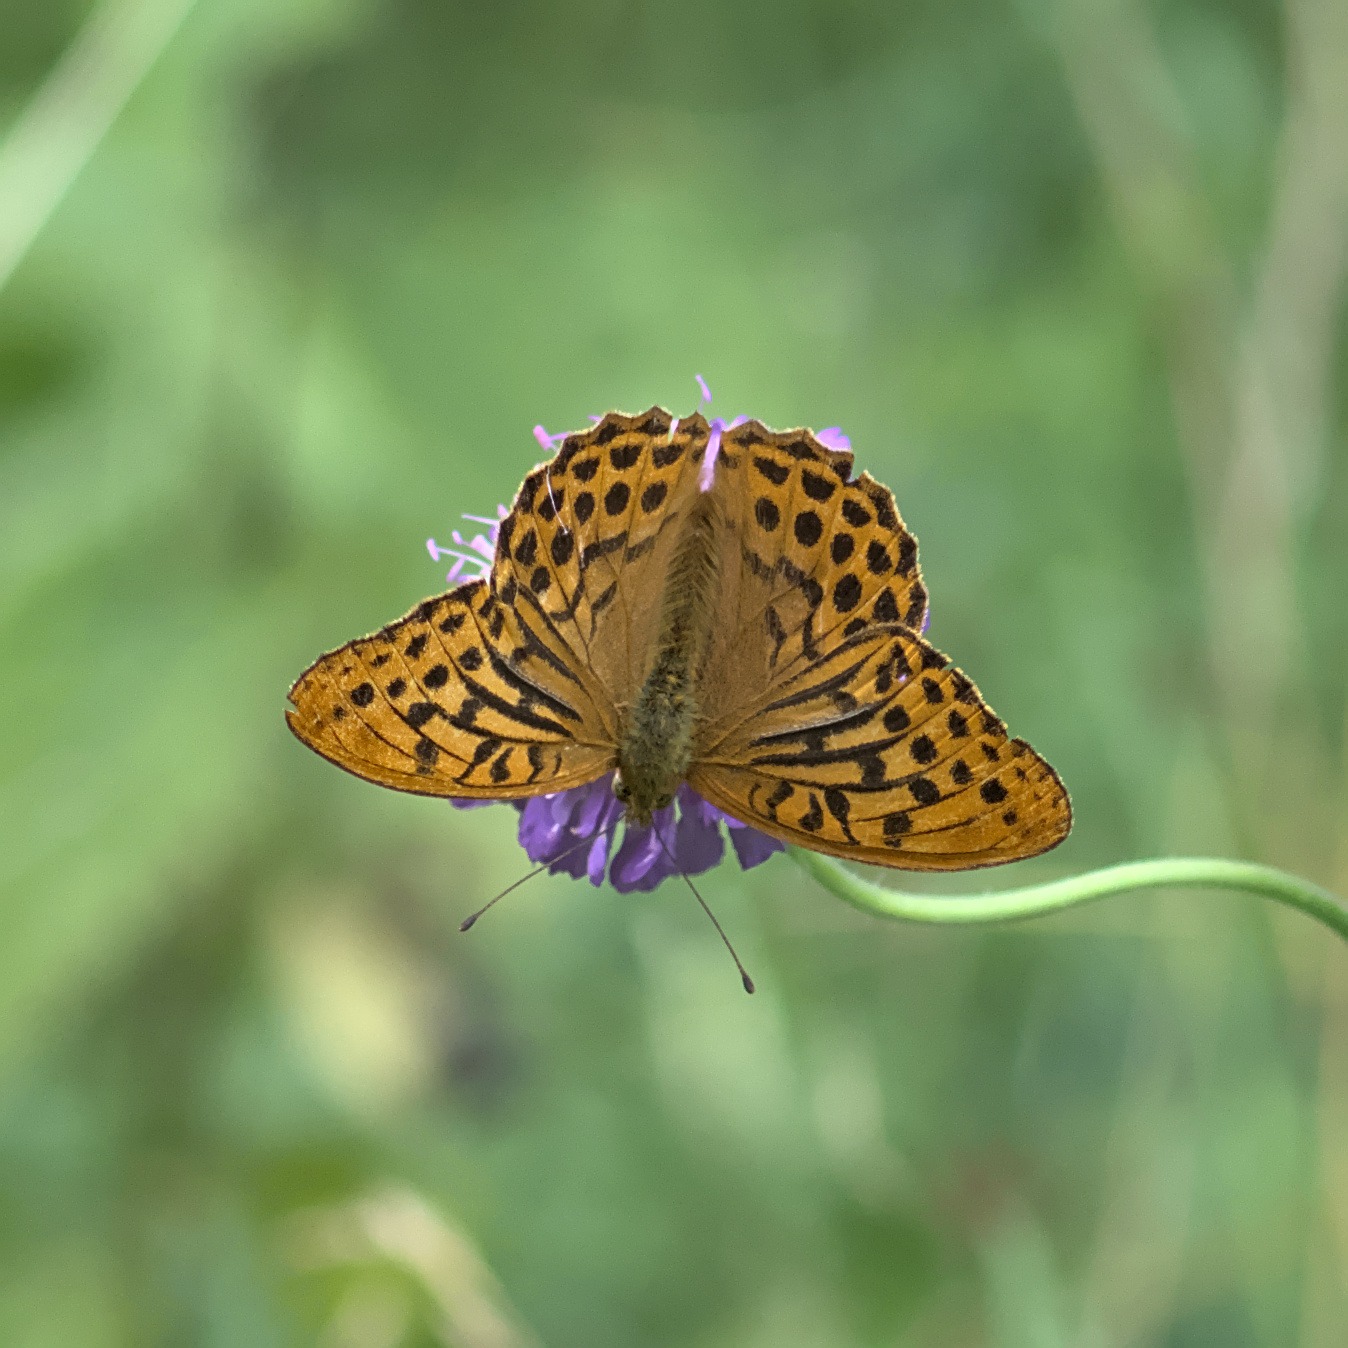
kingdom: Animalia
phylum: Arthropoda
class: Insecta
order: Lepidoptera
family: Nymphalidae
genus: Argynnis
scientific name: Argynnis paphia
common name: Kejserkåbe
